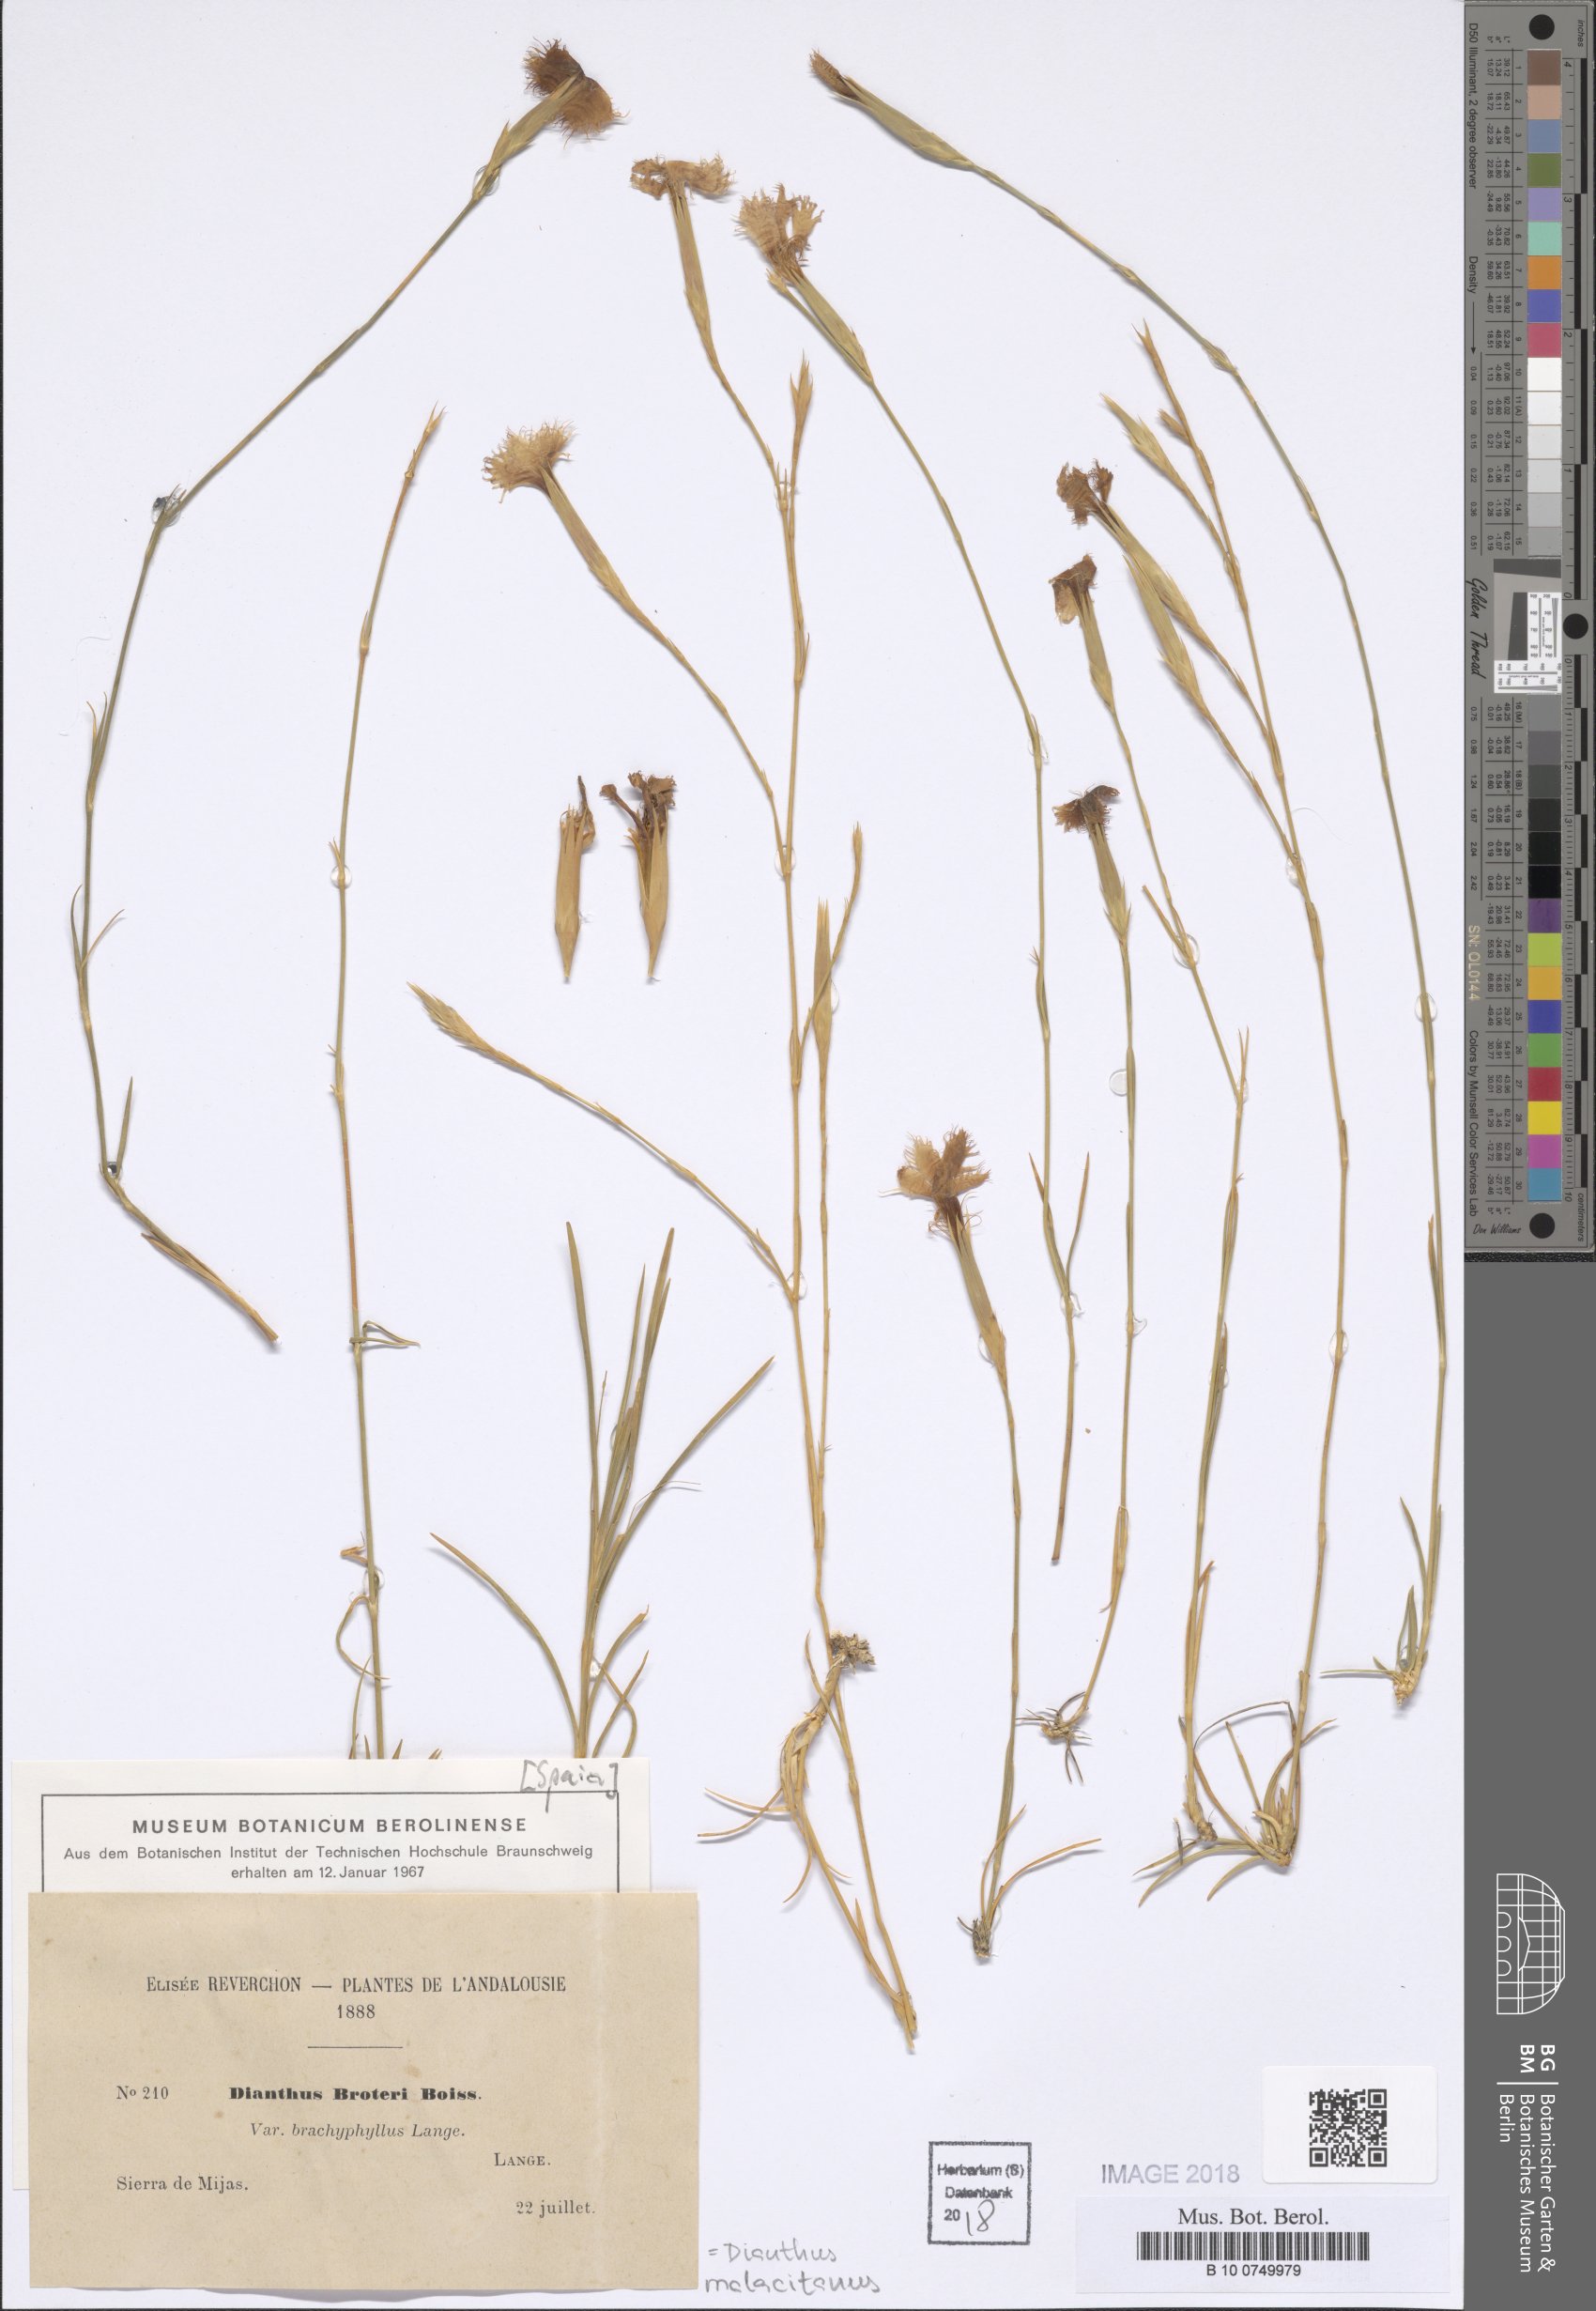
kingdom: Plantae
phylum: Tracheophyta
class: Magnoliopsida
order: Caryophyllales
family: Caryophyllaceae
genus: Dianthus
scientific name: Dianthus broteri
